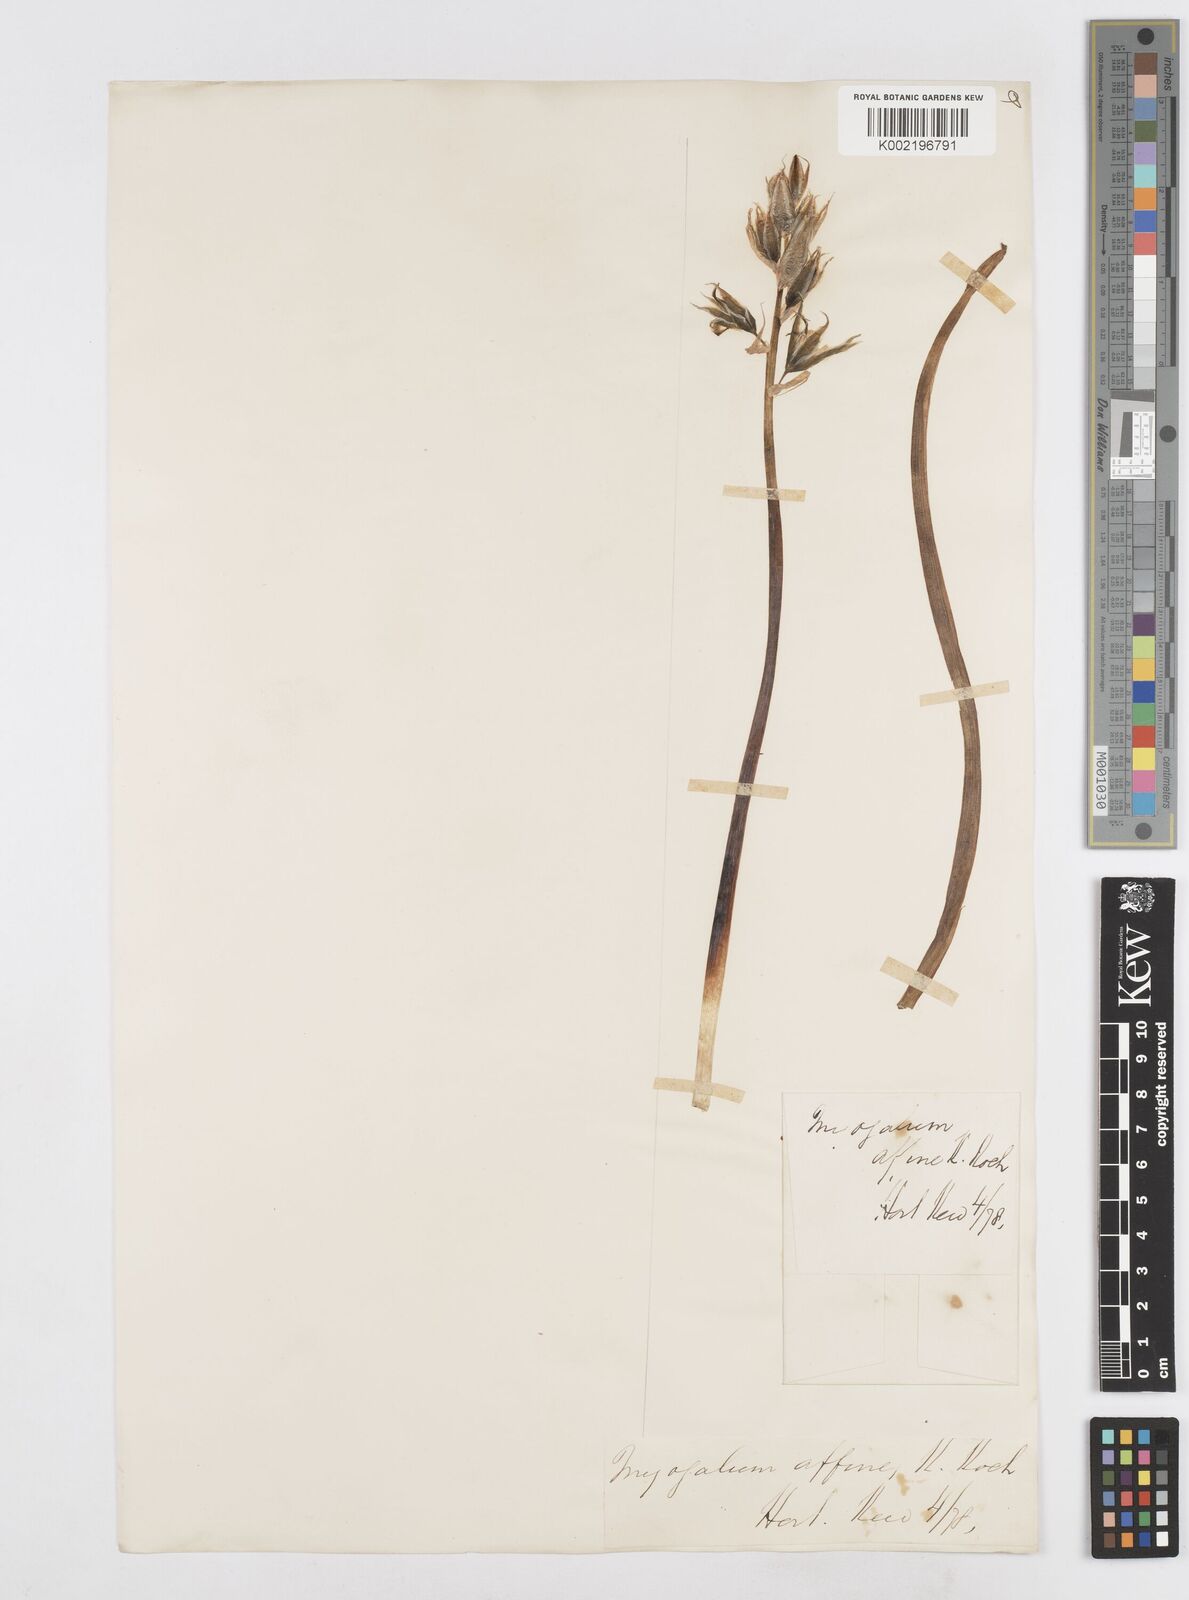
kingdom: Plantae
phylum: Tracheophyta
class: Liliopsida
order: Asparagales
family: Asparagaceae
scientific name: Asparagaceae
